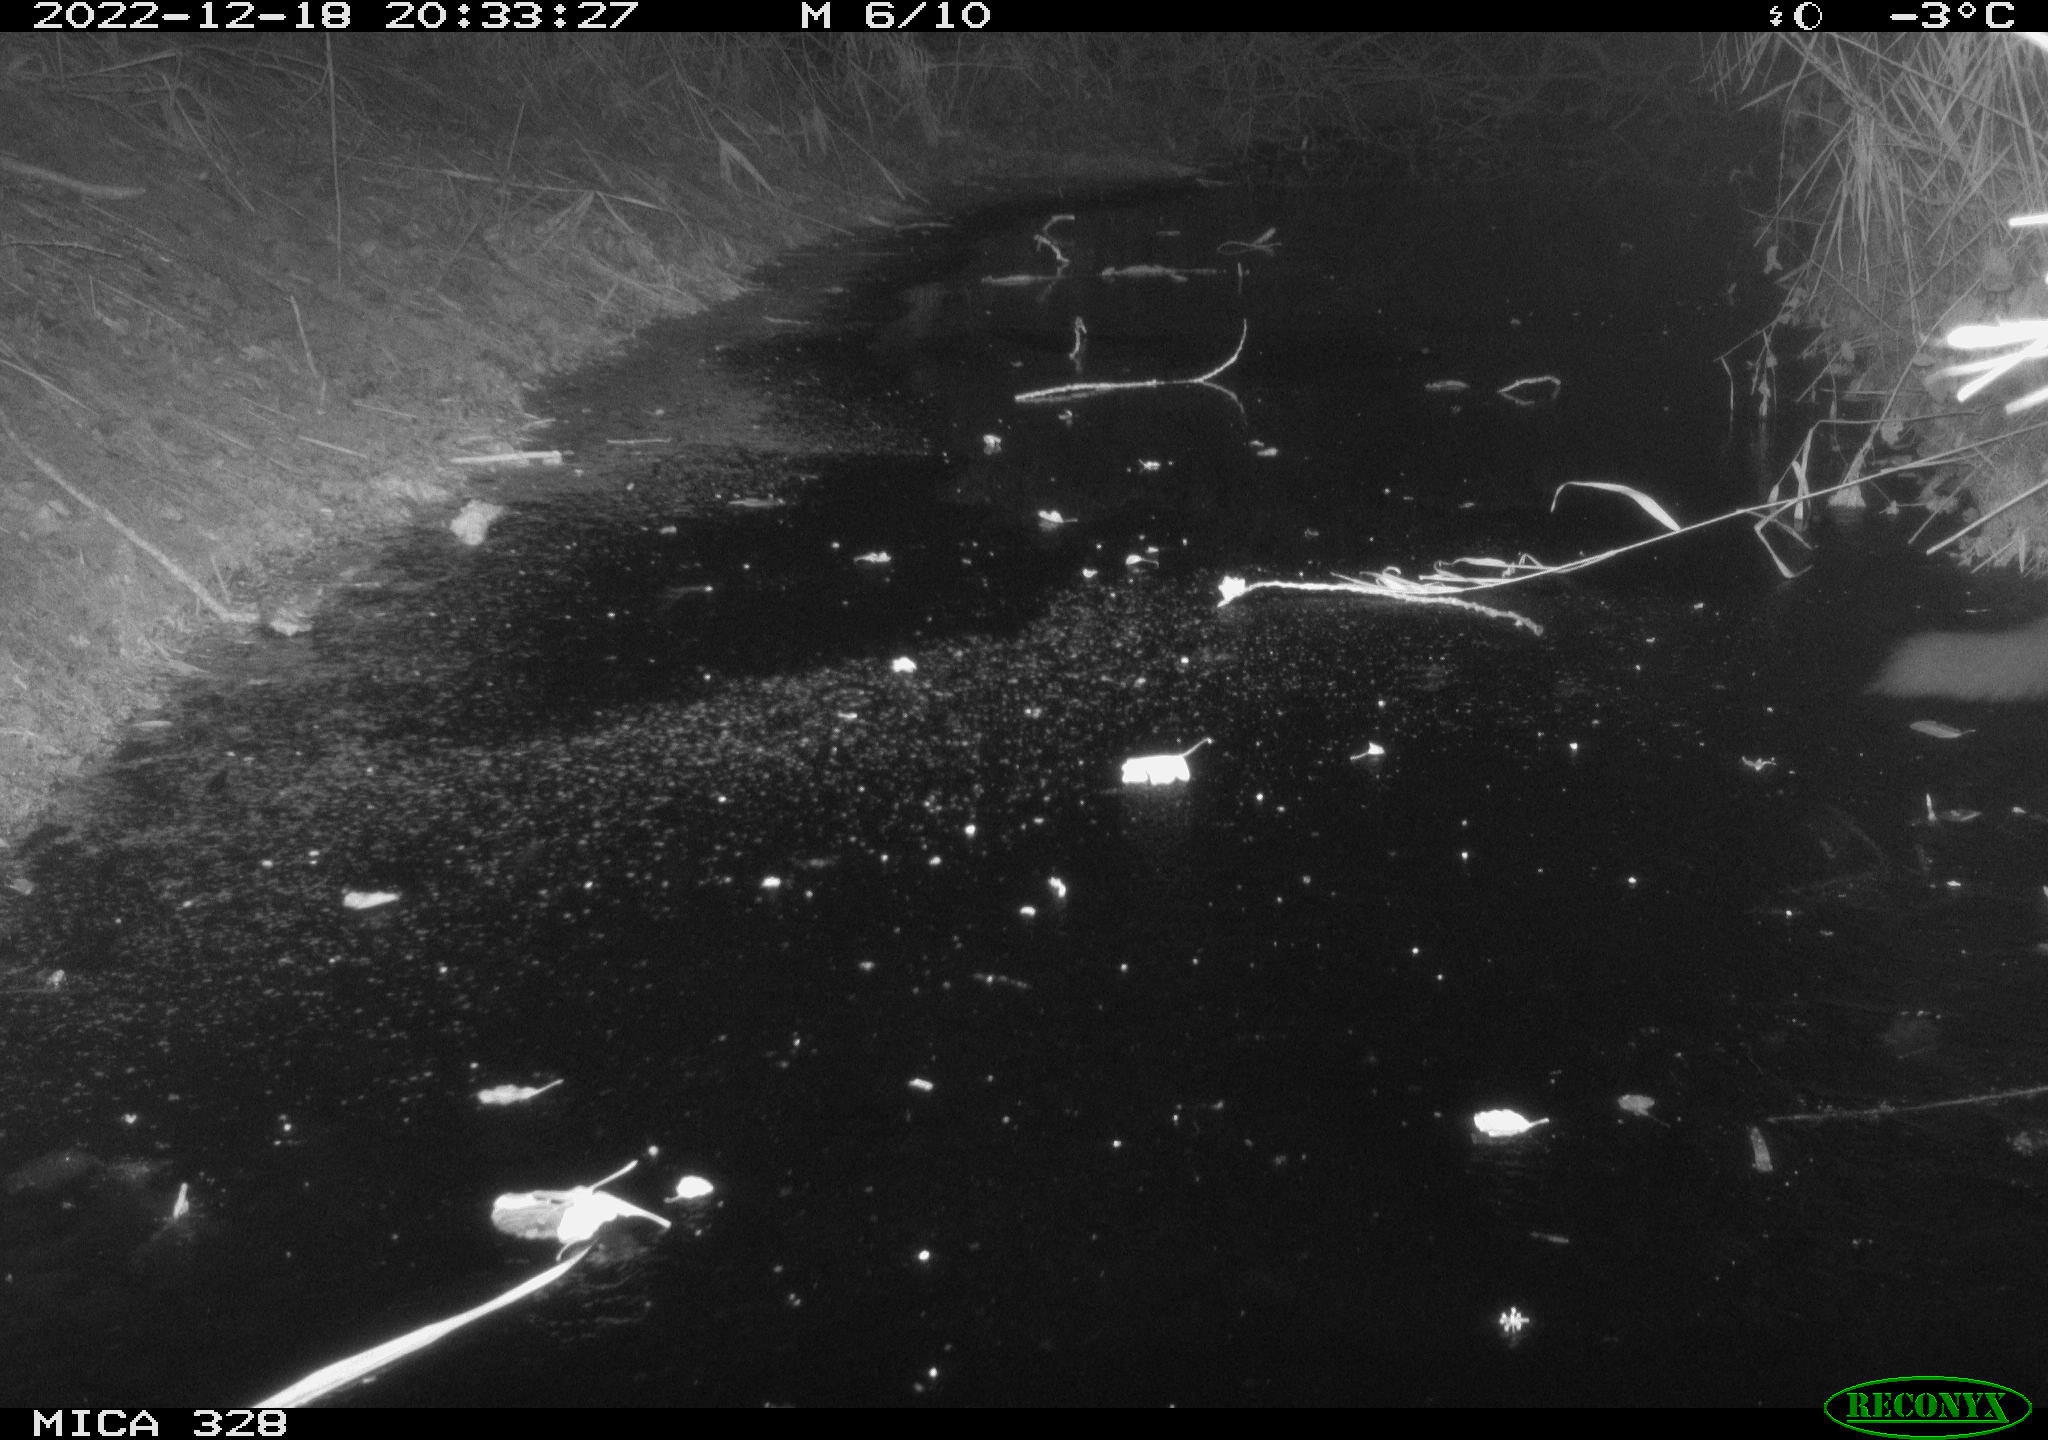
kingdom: Animalia
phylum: Chordata
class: Mammalia
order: Carnivora
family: Mustelidae
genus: Martes
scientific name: Martes foina
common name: Beech marten
